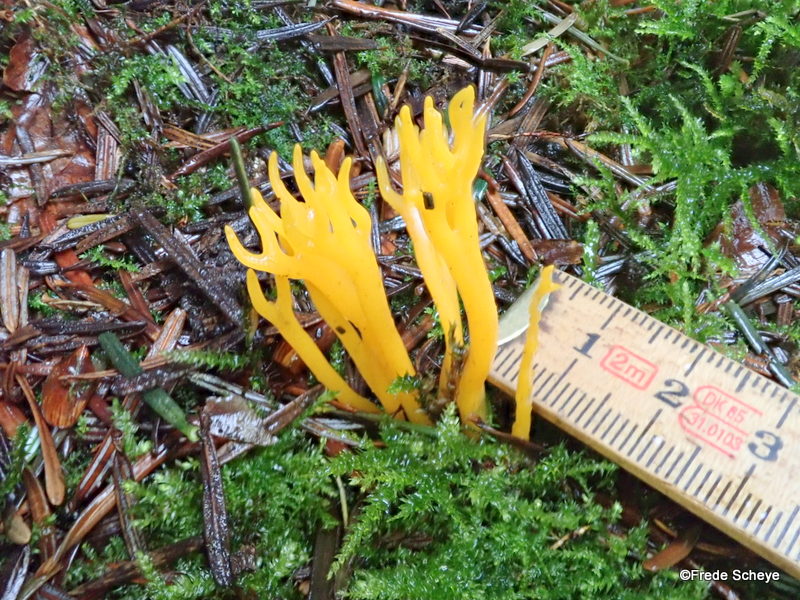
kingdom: Fungi
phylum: Basidiomycota
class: Dacrymycetes
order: Dacrymycetales
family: Dacrymycetaceae
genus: Calocera
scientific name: Calocera viscosa
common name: almindelig guldgaffel
